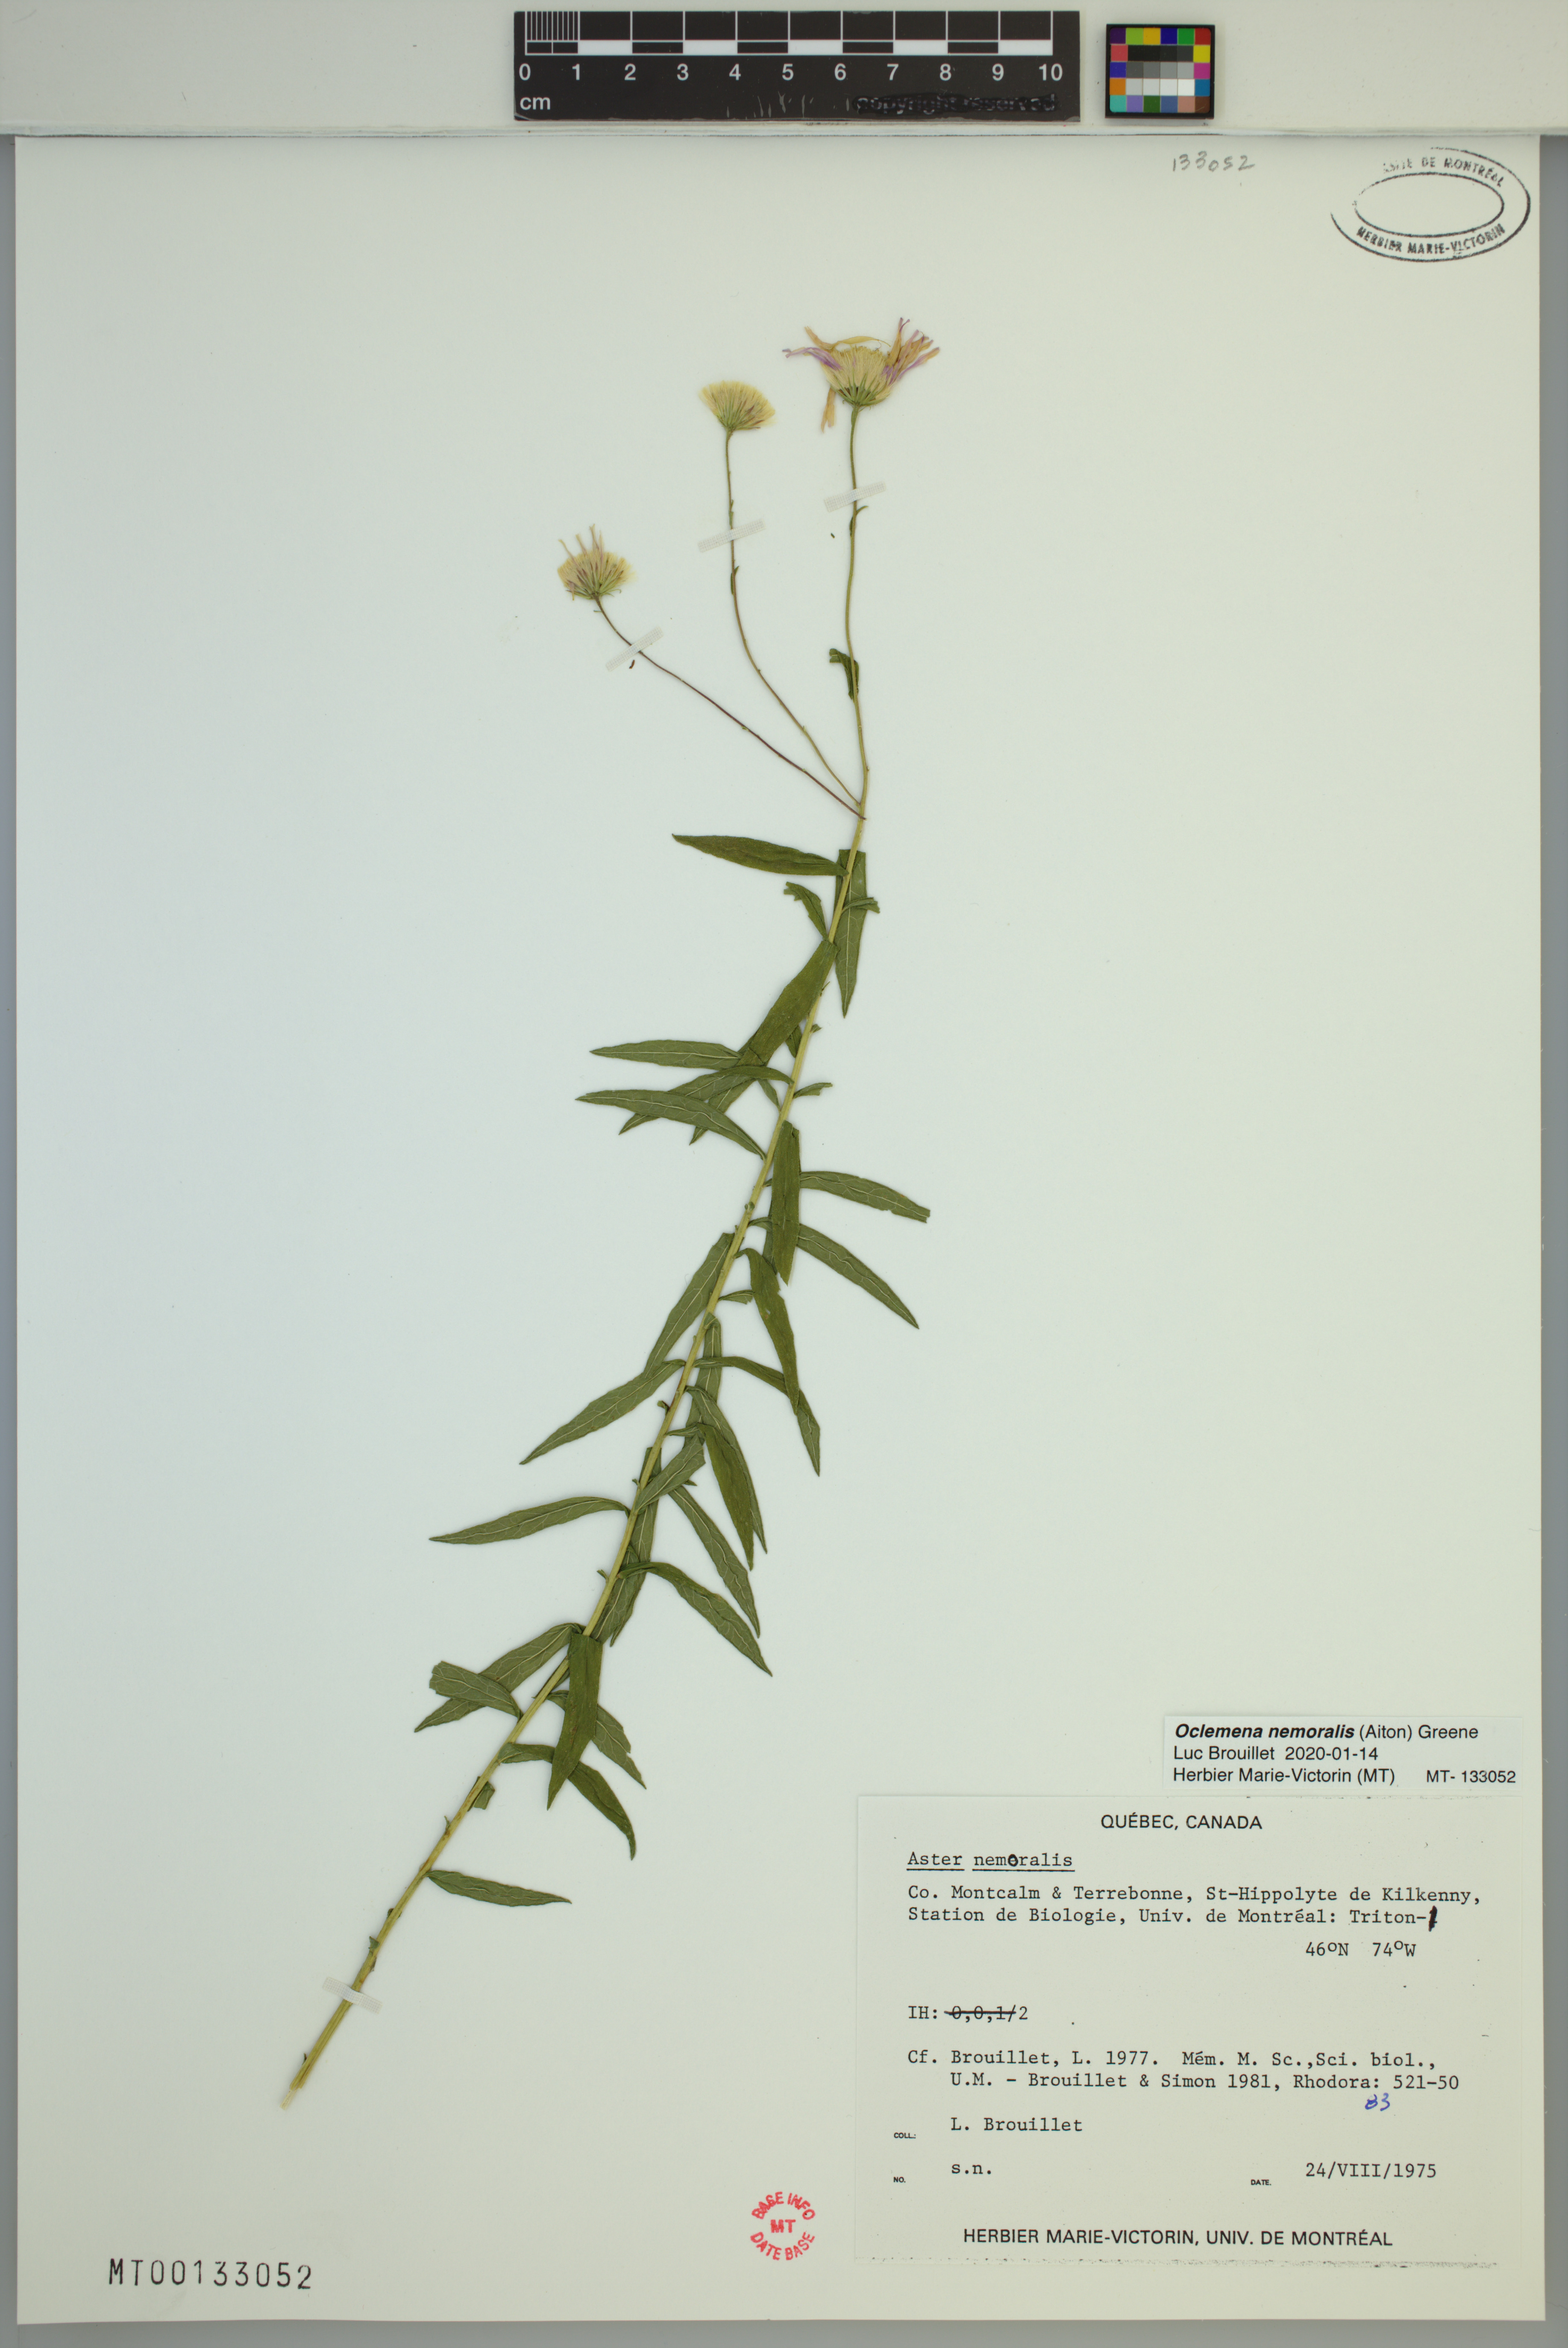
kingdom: Plantae
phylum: Tracheophyta
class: Magnoliopsida
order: Asterales
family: Asteraceae
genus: Oclemena
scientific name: Oclemena nemoralis
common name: Bog aster
